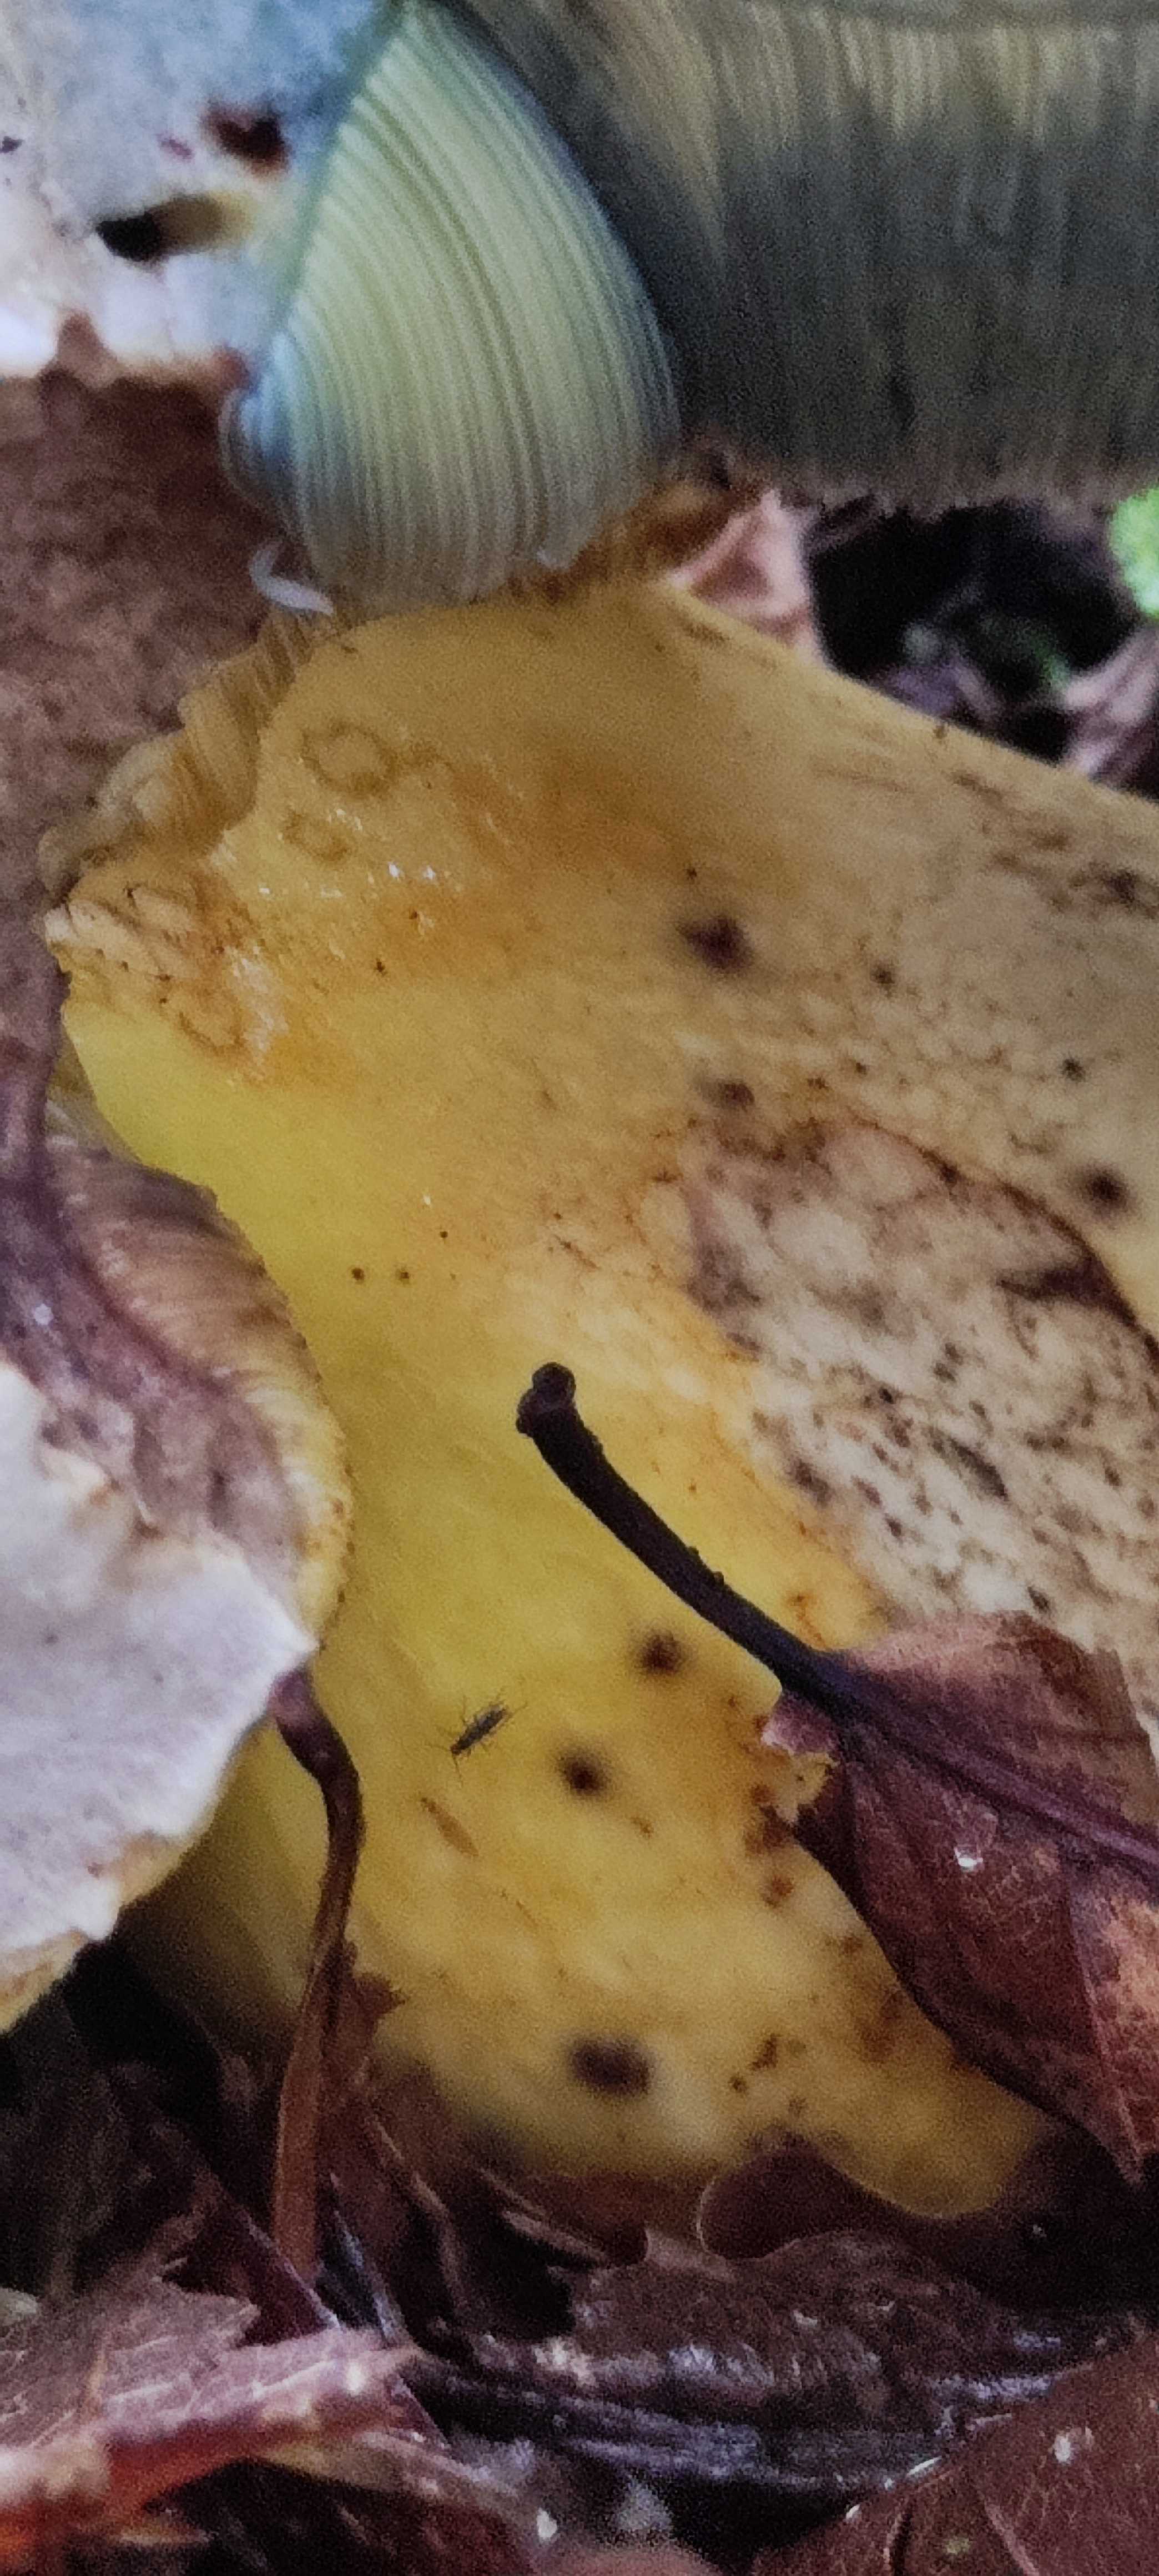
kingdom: Fungi
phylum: Basidiomycota
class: Agaricomycetes
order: Boletales
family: Boletaceae
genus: Caloboletus
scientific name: Caloboletus radicans
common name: rod-rørhat
